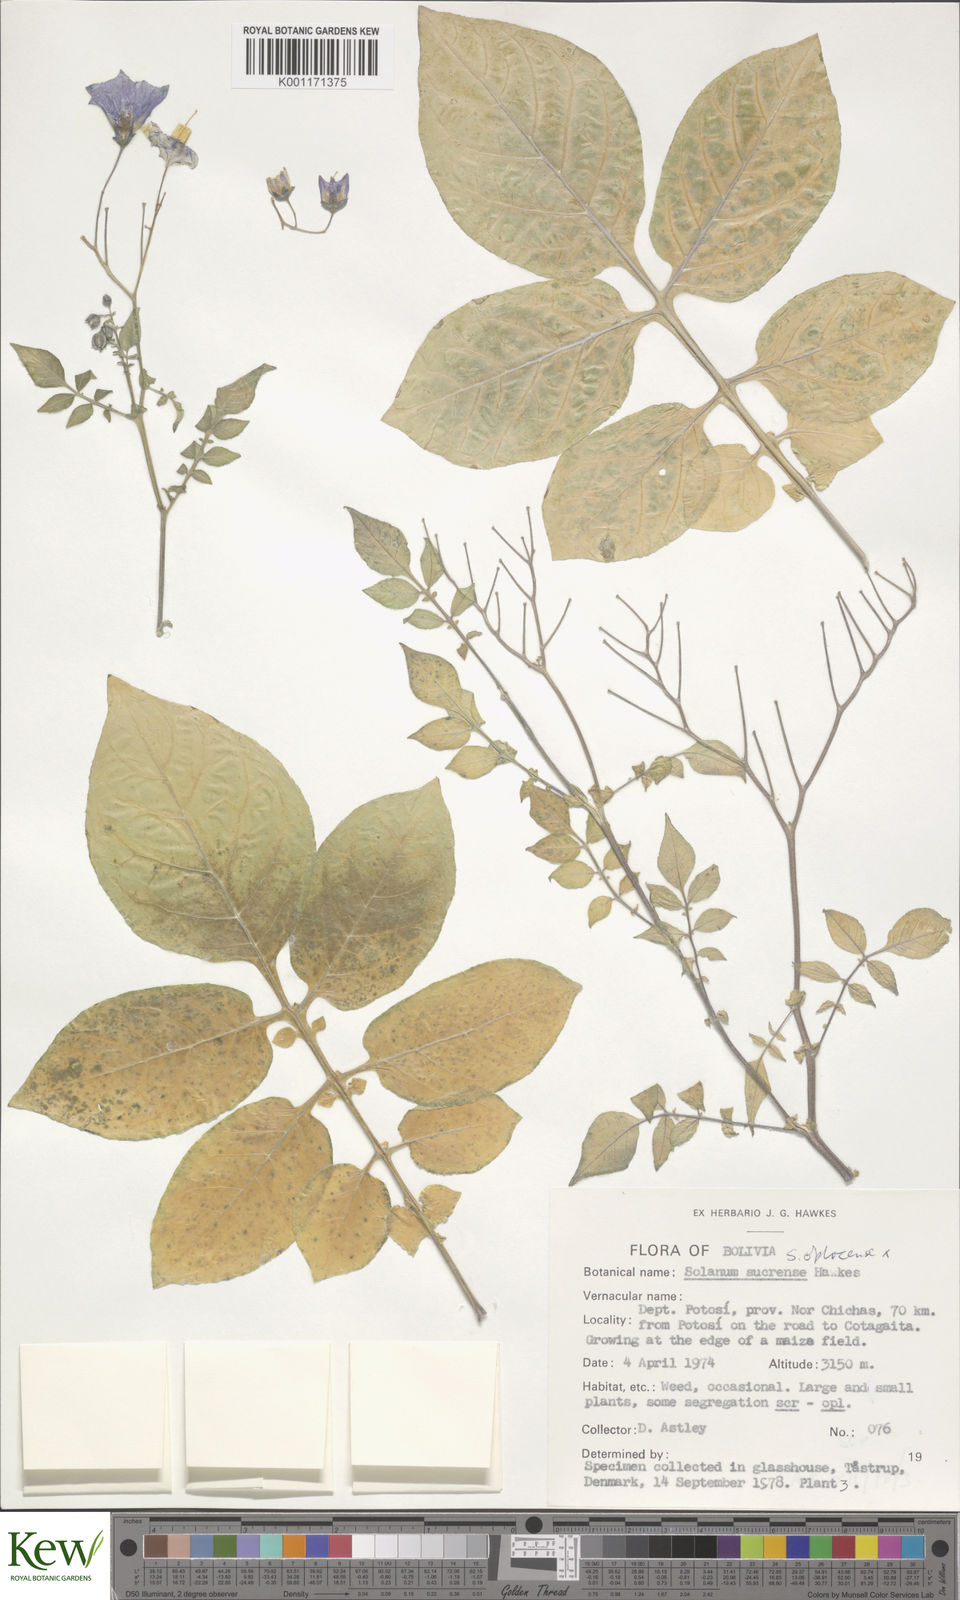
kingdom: Plantae
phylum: Tracheophyta
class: Magnoliopsida
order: Solanales
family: Solanaceae
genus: Solanum
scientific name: Solanum brevicaule
